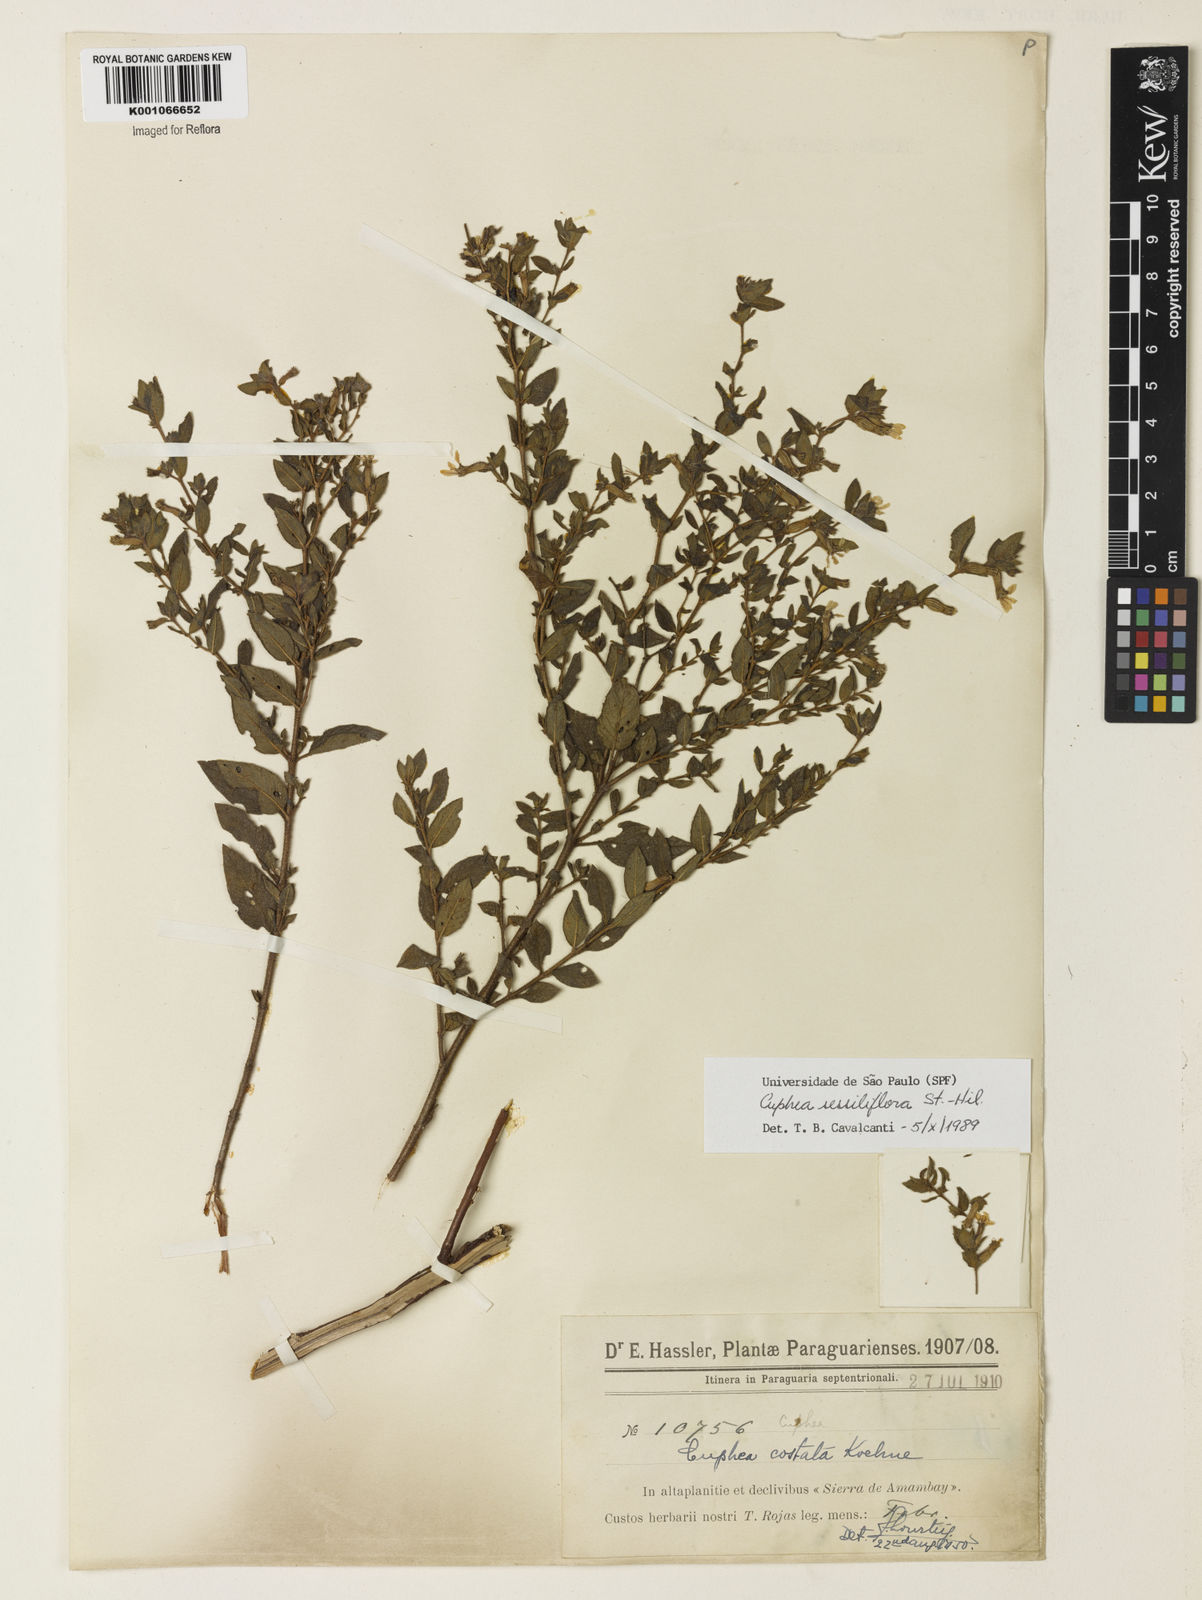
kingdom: Plantae
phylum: Tracheophyta
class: Magnoliopsida
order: Myrtales
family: Lythraceae
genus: Cuphea
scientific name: Cuphea sessiliflora
